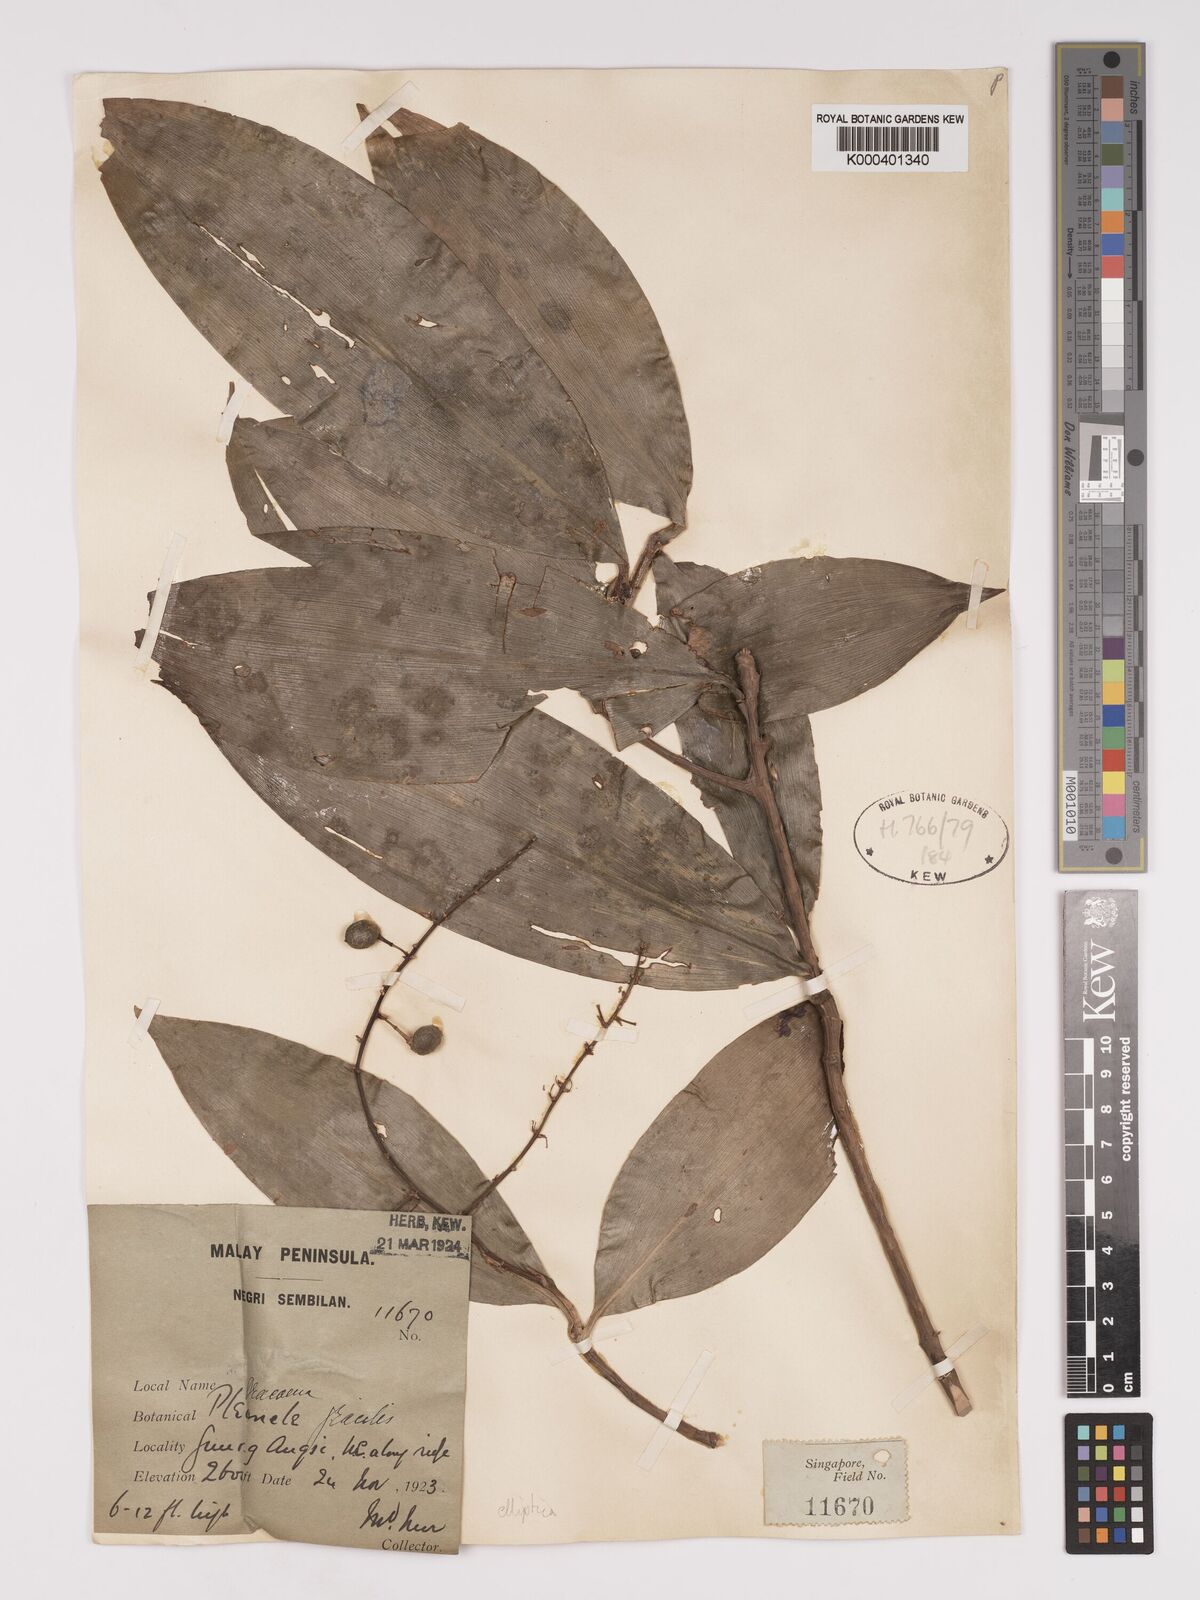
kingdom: Plantae
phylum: Tracheophyta
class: Liliopsida
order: Asparagales
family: Asparagaceae
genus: Dracaena
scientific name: Dracaena elliptica
